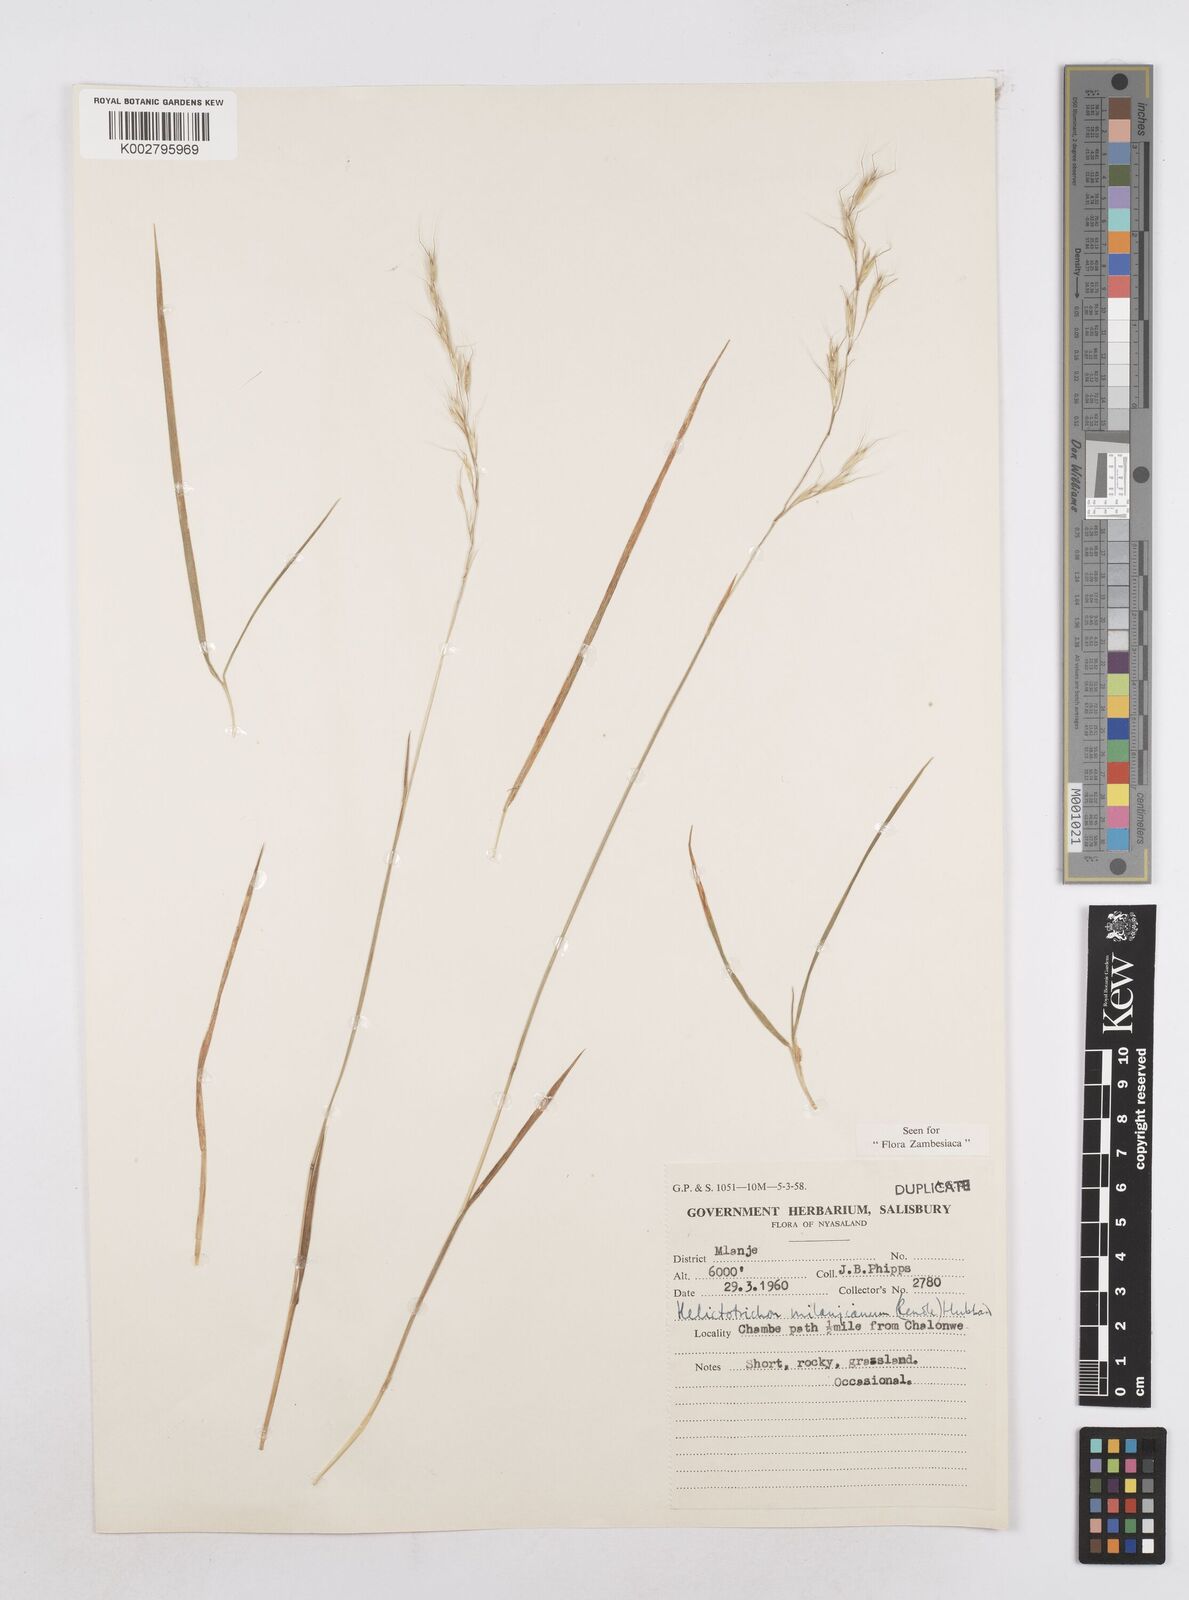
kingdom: Plantae
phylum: Tracheophyta
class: Liliopsida
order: Poales
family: Poaceae
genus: Trisetopsis
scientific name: Trisetopsis milanjiana
